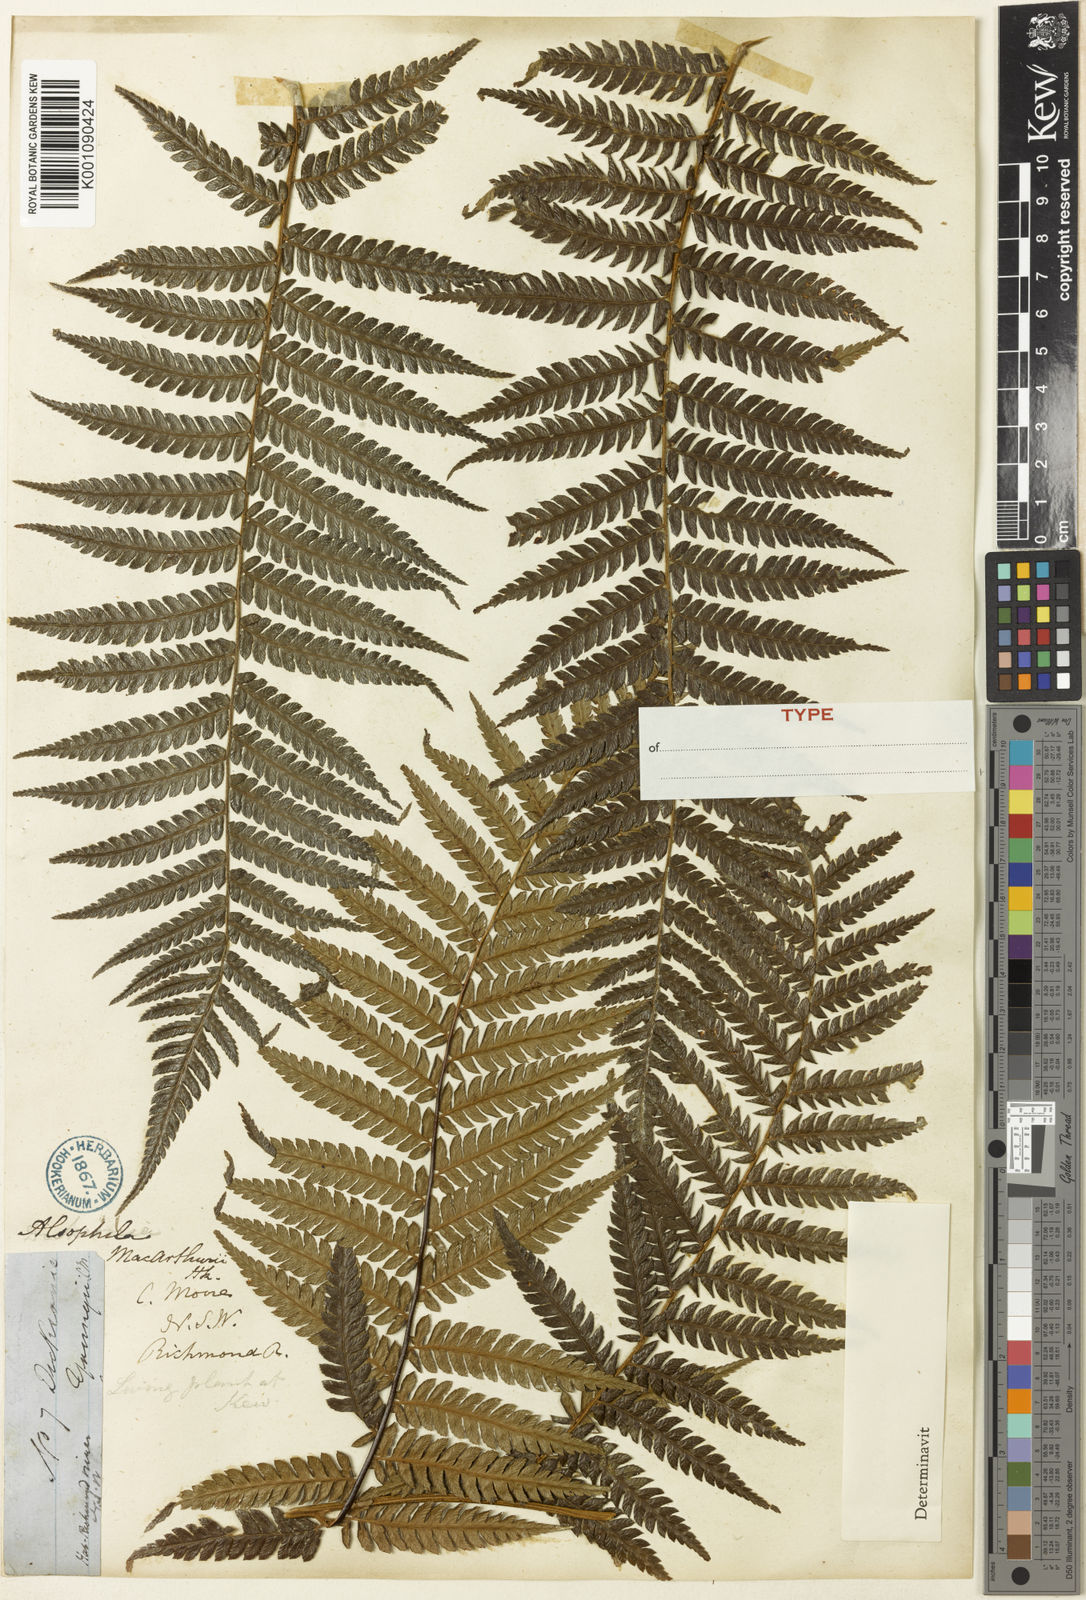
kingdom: Plantae
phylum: Tracheophyta
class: Polypodiopsida
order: Cyatheales
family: Dicksoniaceae
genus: Dicksonia
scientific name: Dicksonia
